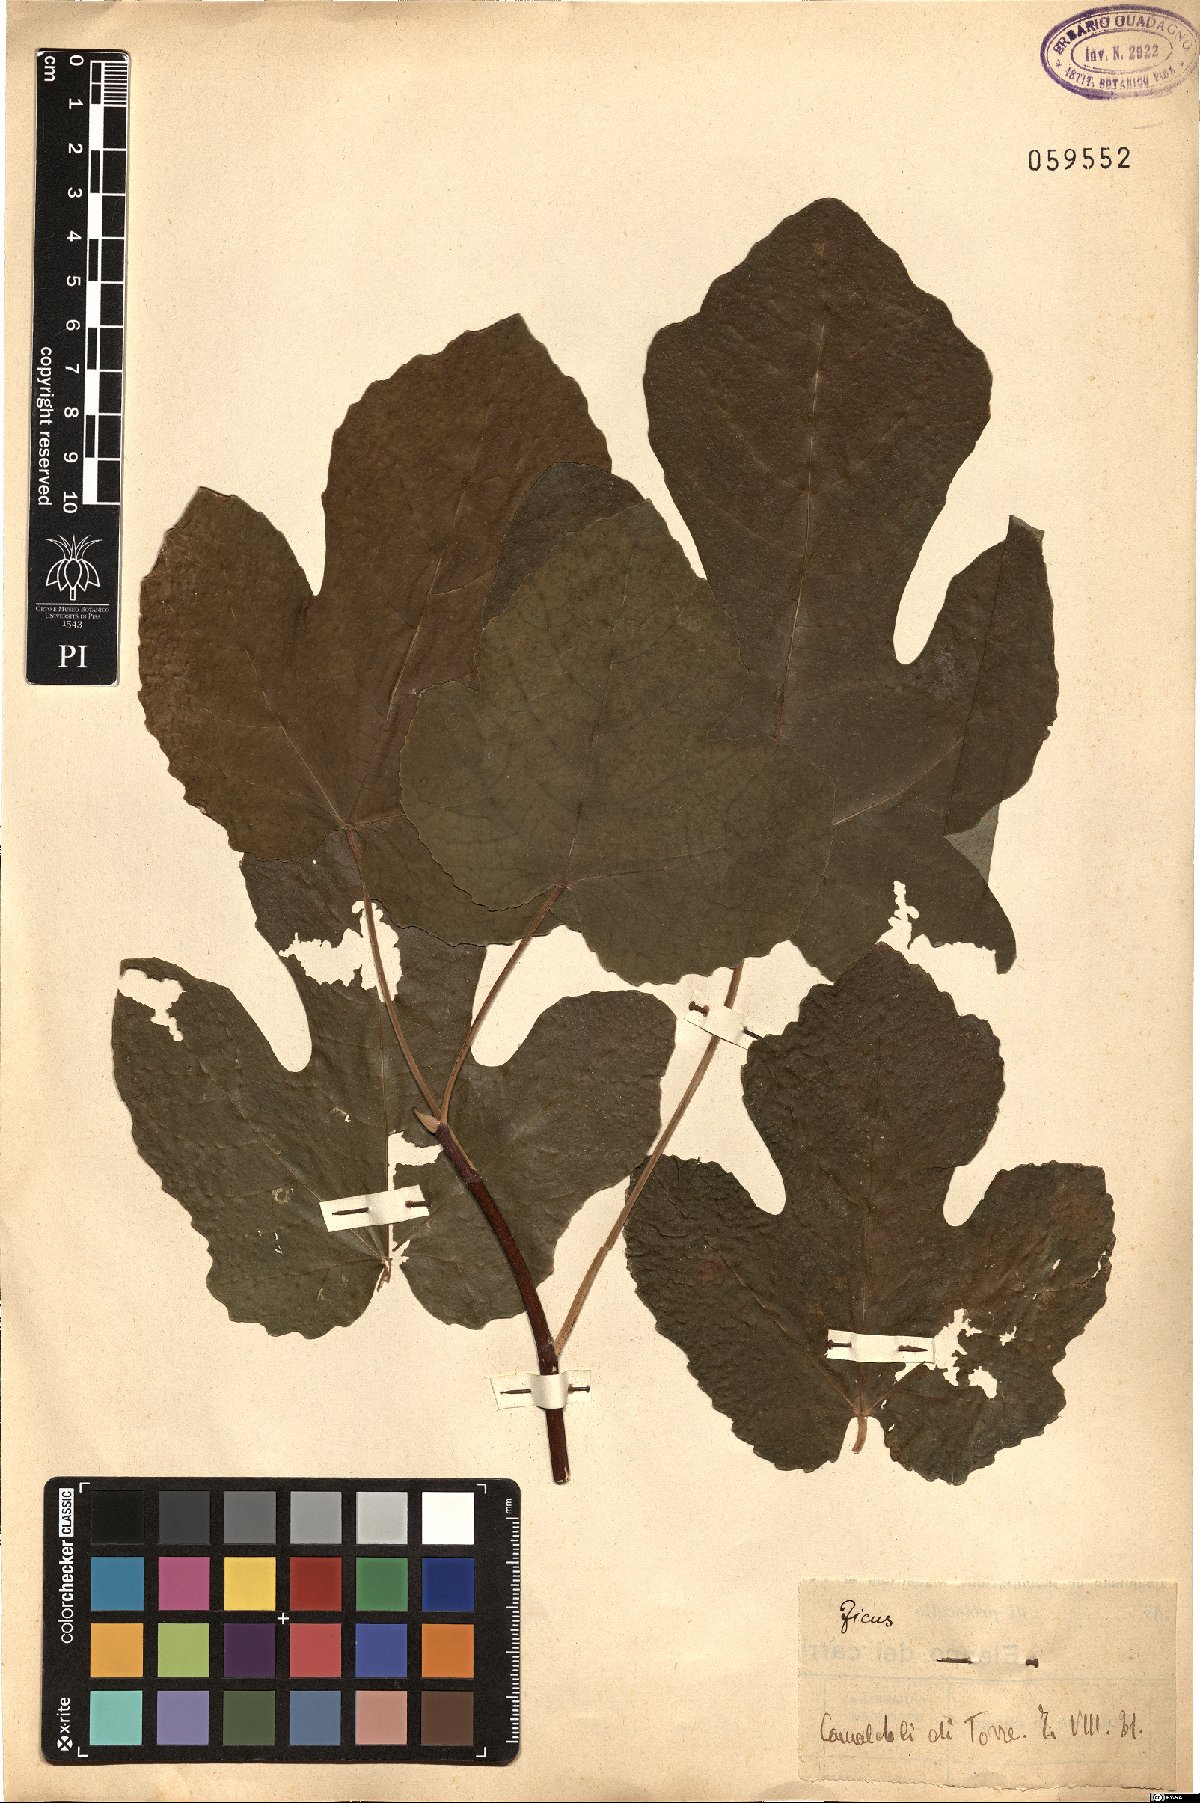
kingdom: Plantae
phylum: Tracheophyta
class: Magnoliopsida
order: Rosales
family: Moraceae
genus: Ficus
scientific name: Ficus carica
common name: Fig
